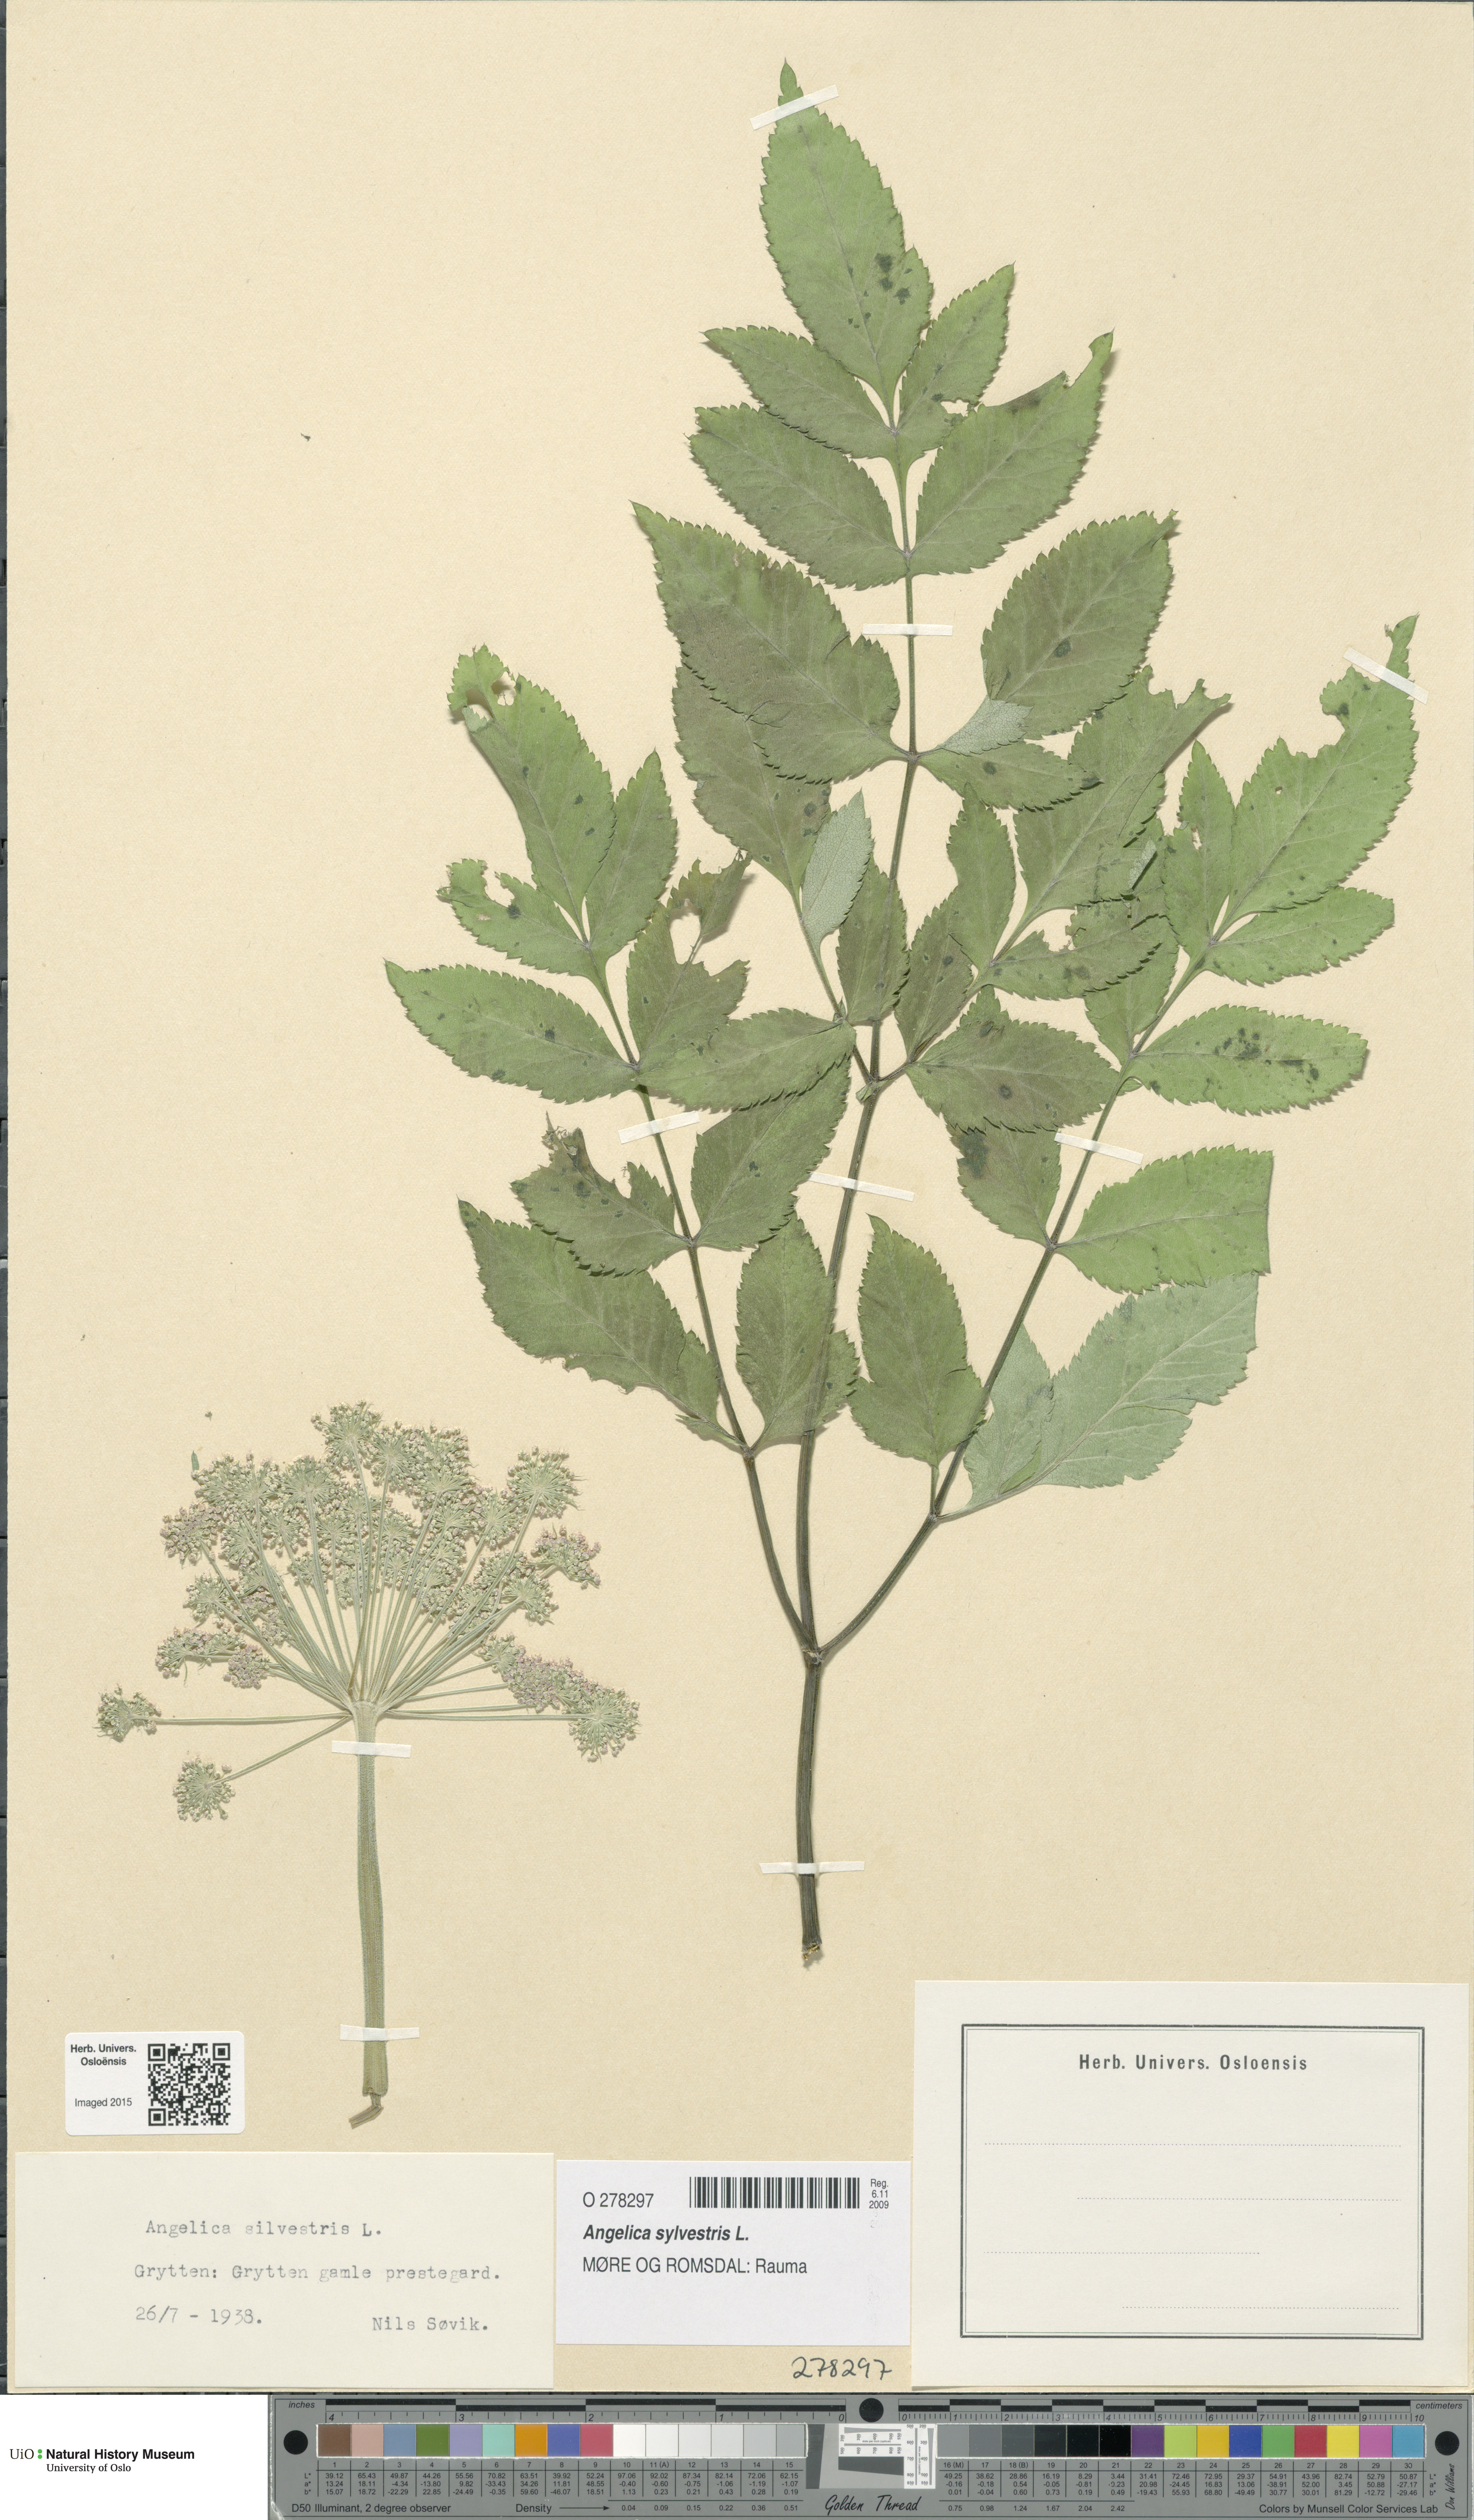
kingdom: Plantae
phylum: Tracheophyta
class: Magnoliopsida
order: Apiales
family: Apiaceae
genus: Angelica
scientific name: Angelica sylvestris
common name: Wild angelica
